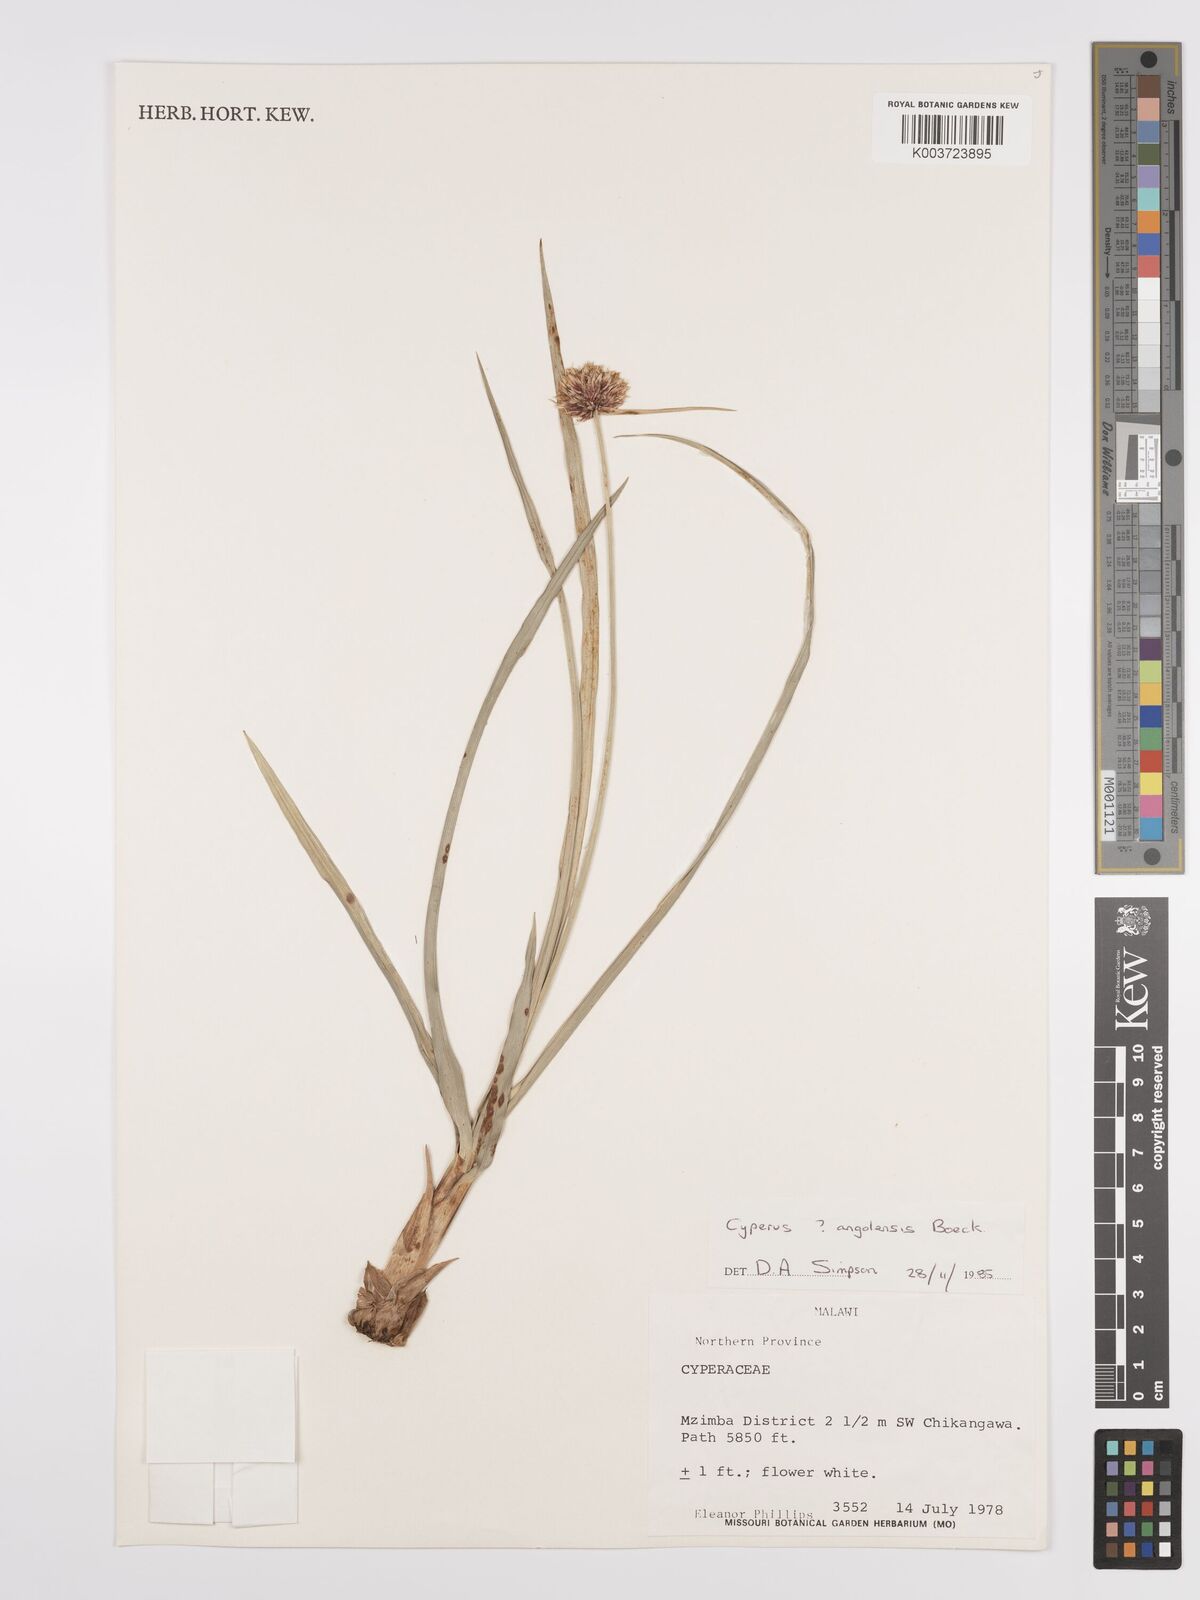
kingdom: Plantae
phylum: Tracheophyta
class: Liliopsida
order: Poales
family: Cyperaceae
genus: Cyperus
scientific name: Cyperus angolensis
